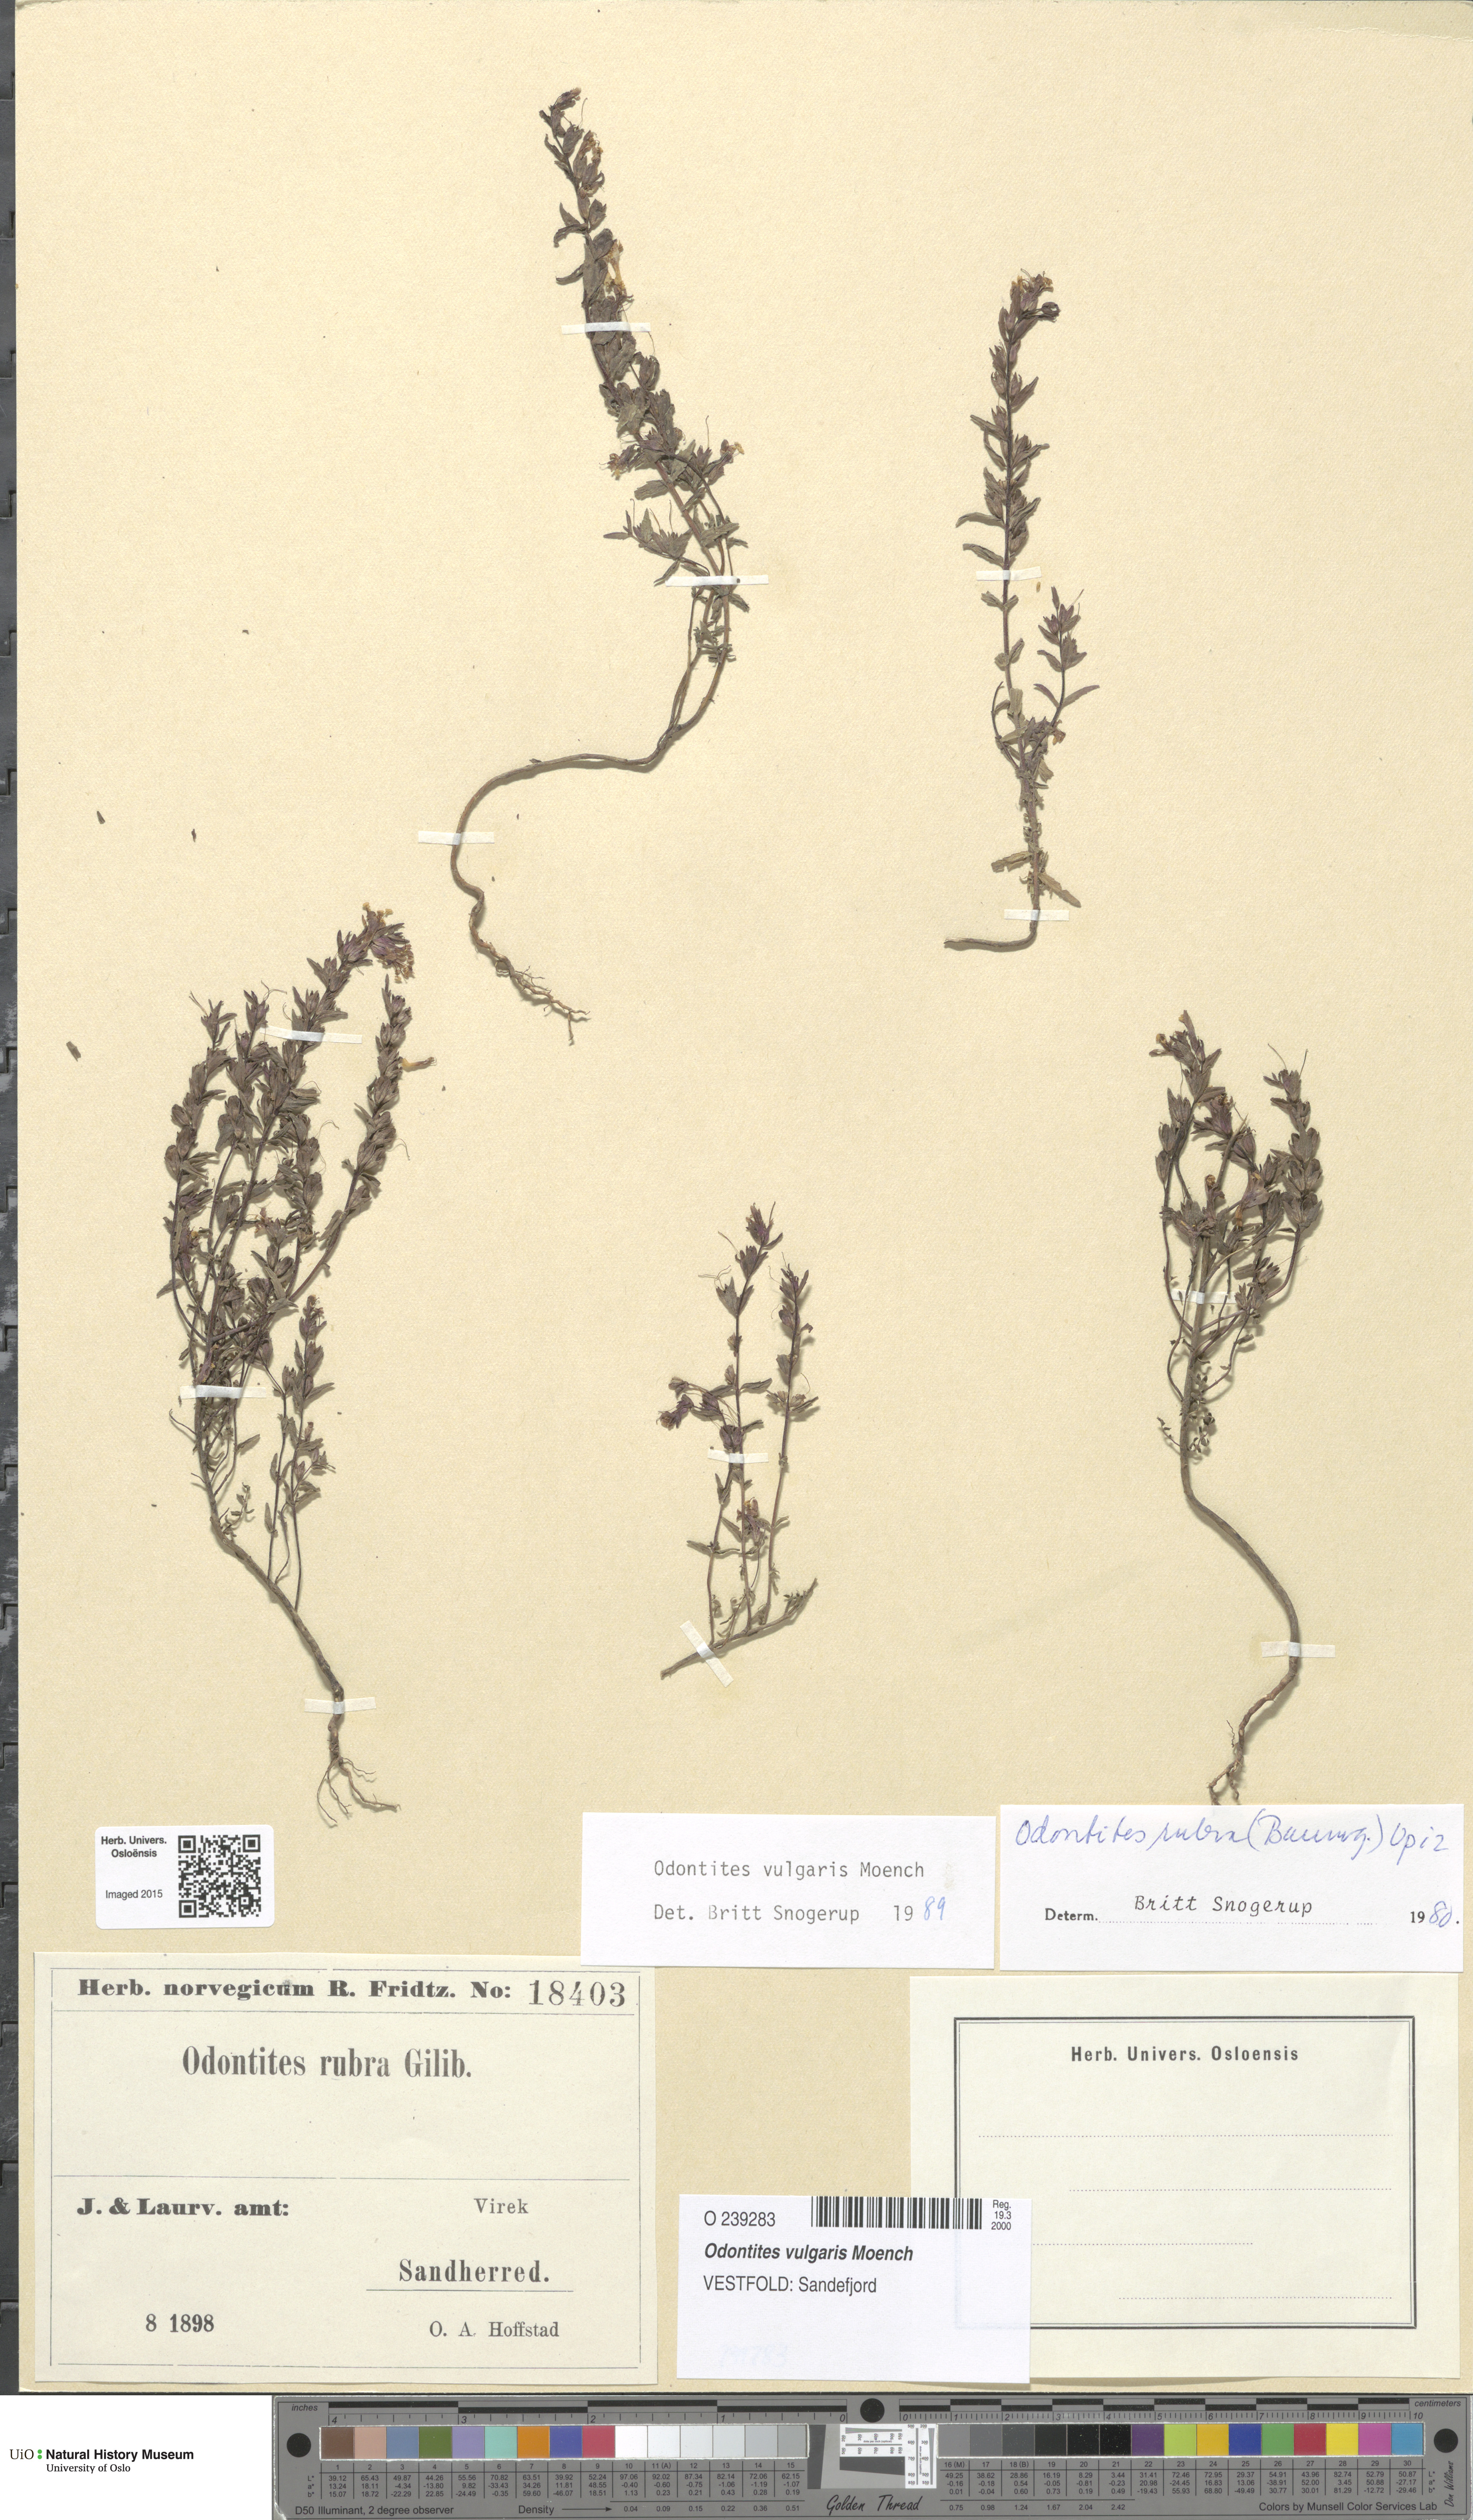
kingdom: Plantae
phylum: Tracheophyta
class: Magnoliopsida
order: Lamiales
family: Orobanchaceae
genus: Odontites
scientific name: Odontites vulgaris
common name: Broomrape
